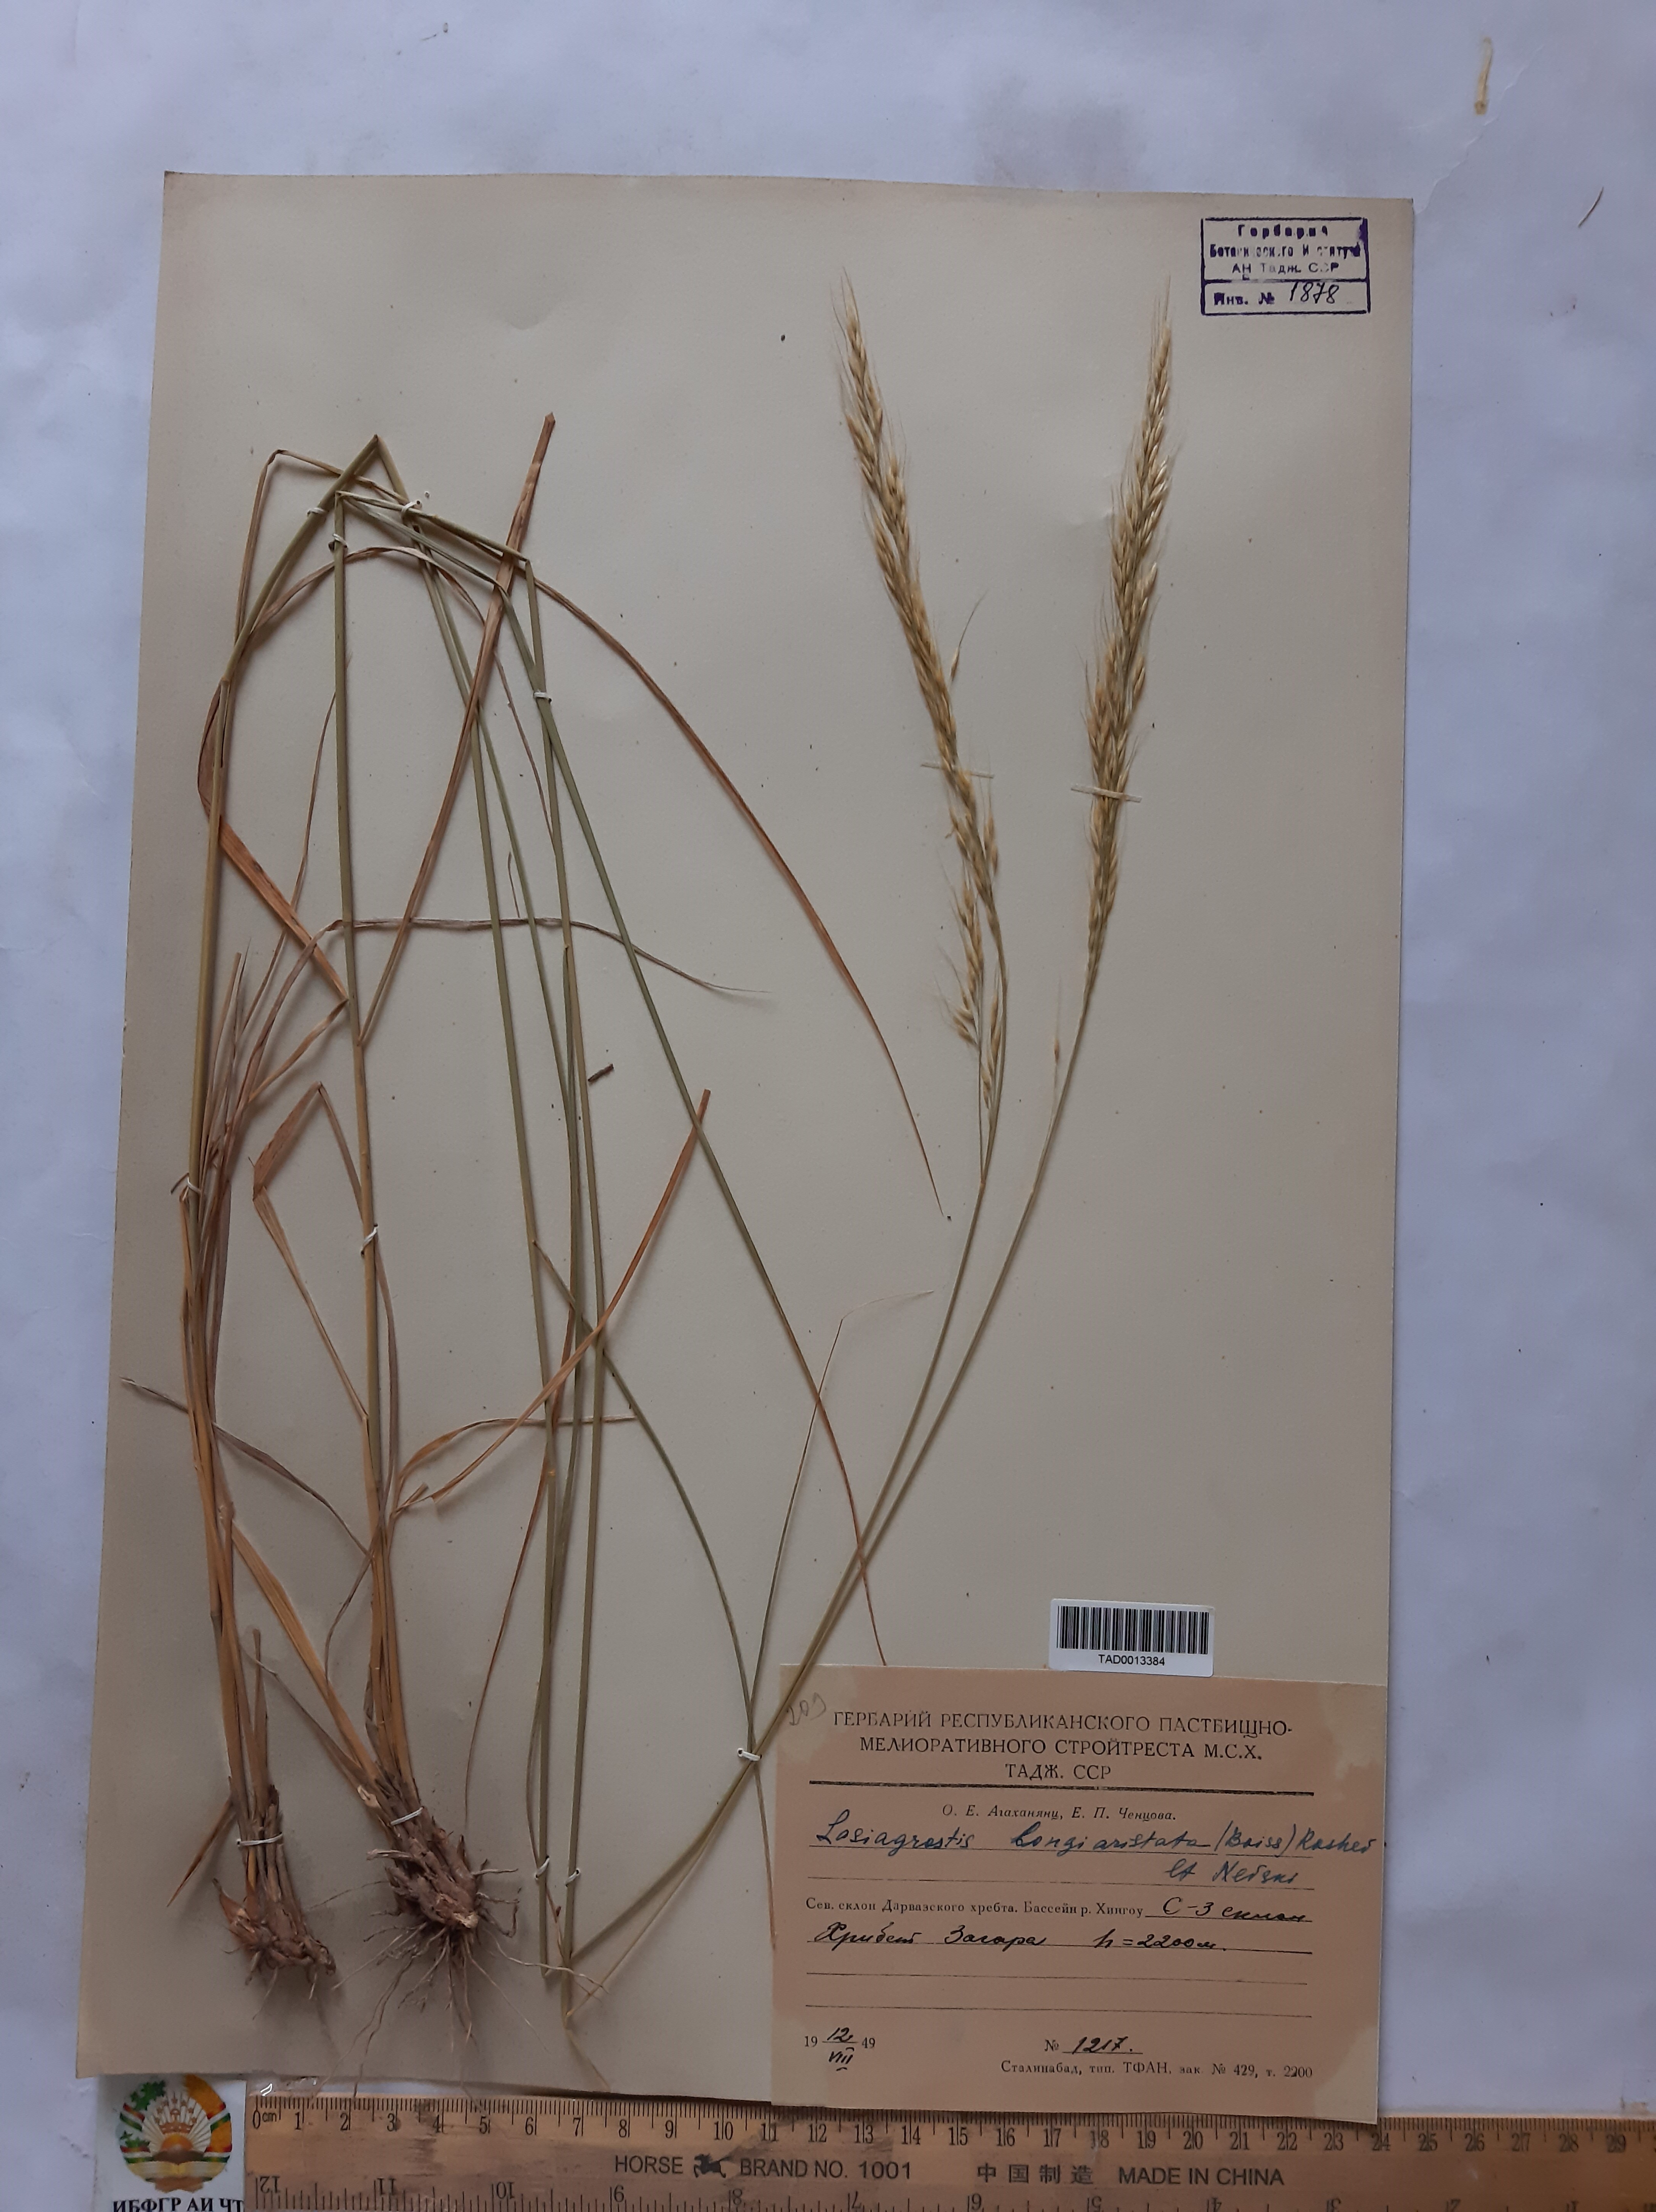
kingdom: Plantae
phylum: Tracheophyta
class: Liliopsida
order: Poales
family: Poaceae
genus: Achnatherum
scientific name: Achnatherum turcomanicum
